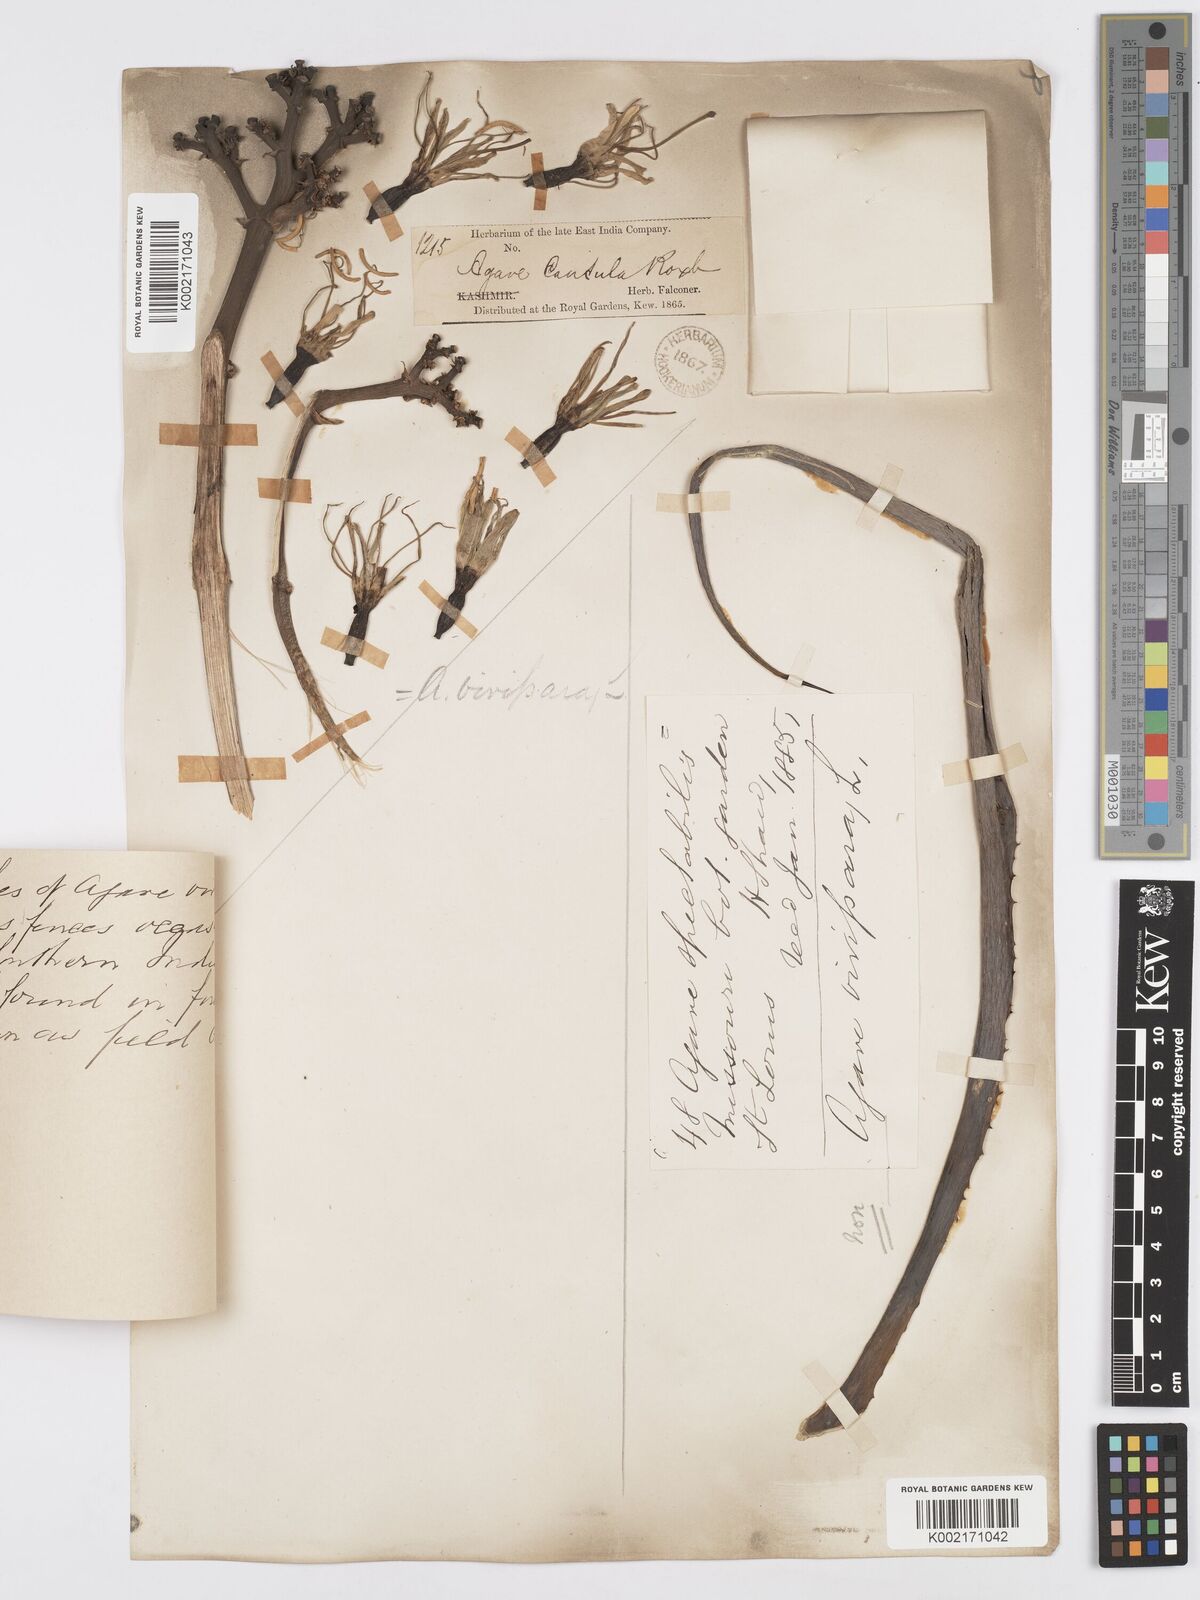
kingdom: Plantae
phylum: Tracheophyta
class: Liliopsida
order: Asparagales
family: Asparagaceae
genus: Agave
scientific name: Agave vivipara
